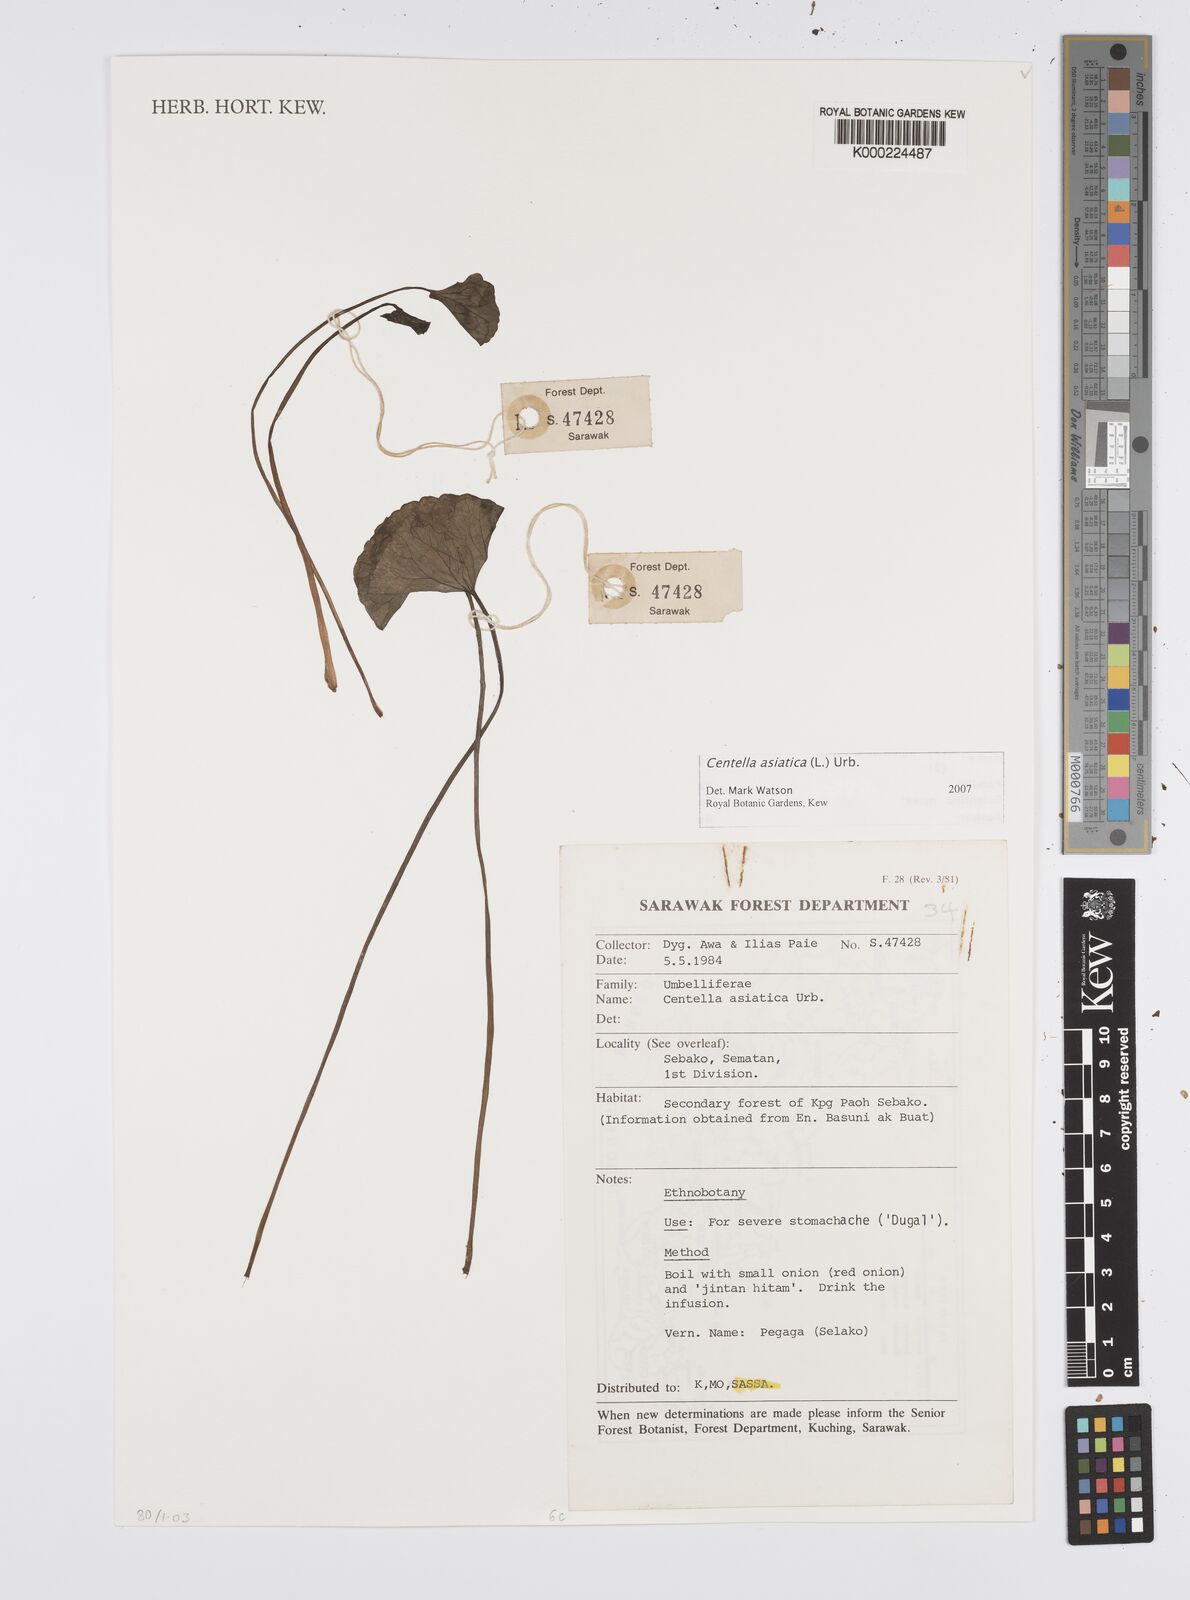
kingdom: Plantae
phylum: Tracheophyta
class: Magnoliopsida
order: Apiales
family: Apiaceae
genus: Centella
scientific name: Centella asiatica
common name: Spadeleaf
